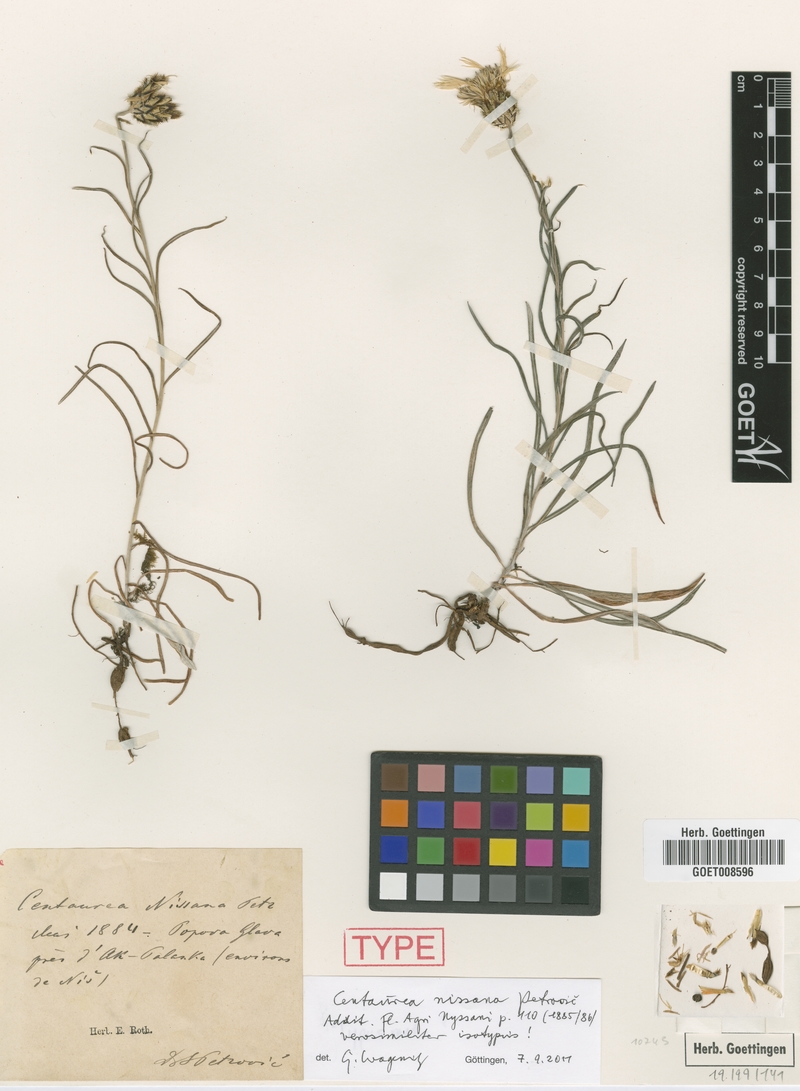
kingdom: Plantae
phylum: Tracheophyta
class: Magnoliopsida
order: Asterales
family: Asteraceae
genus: Centaurea
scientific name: Centaurea nissana
